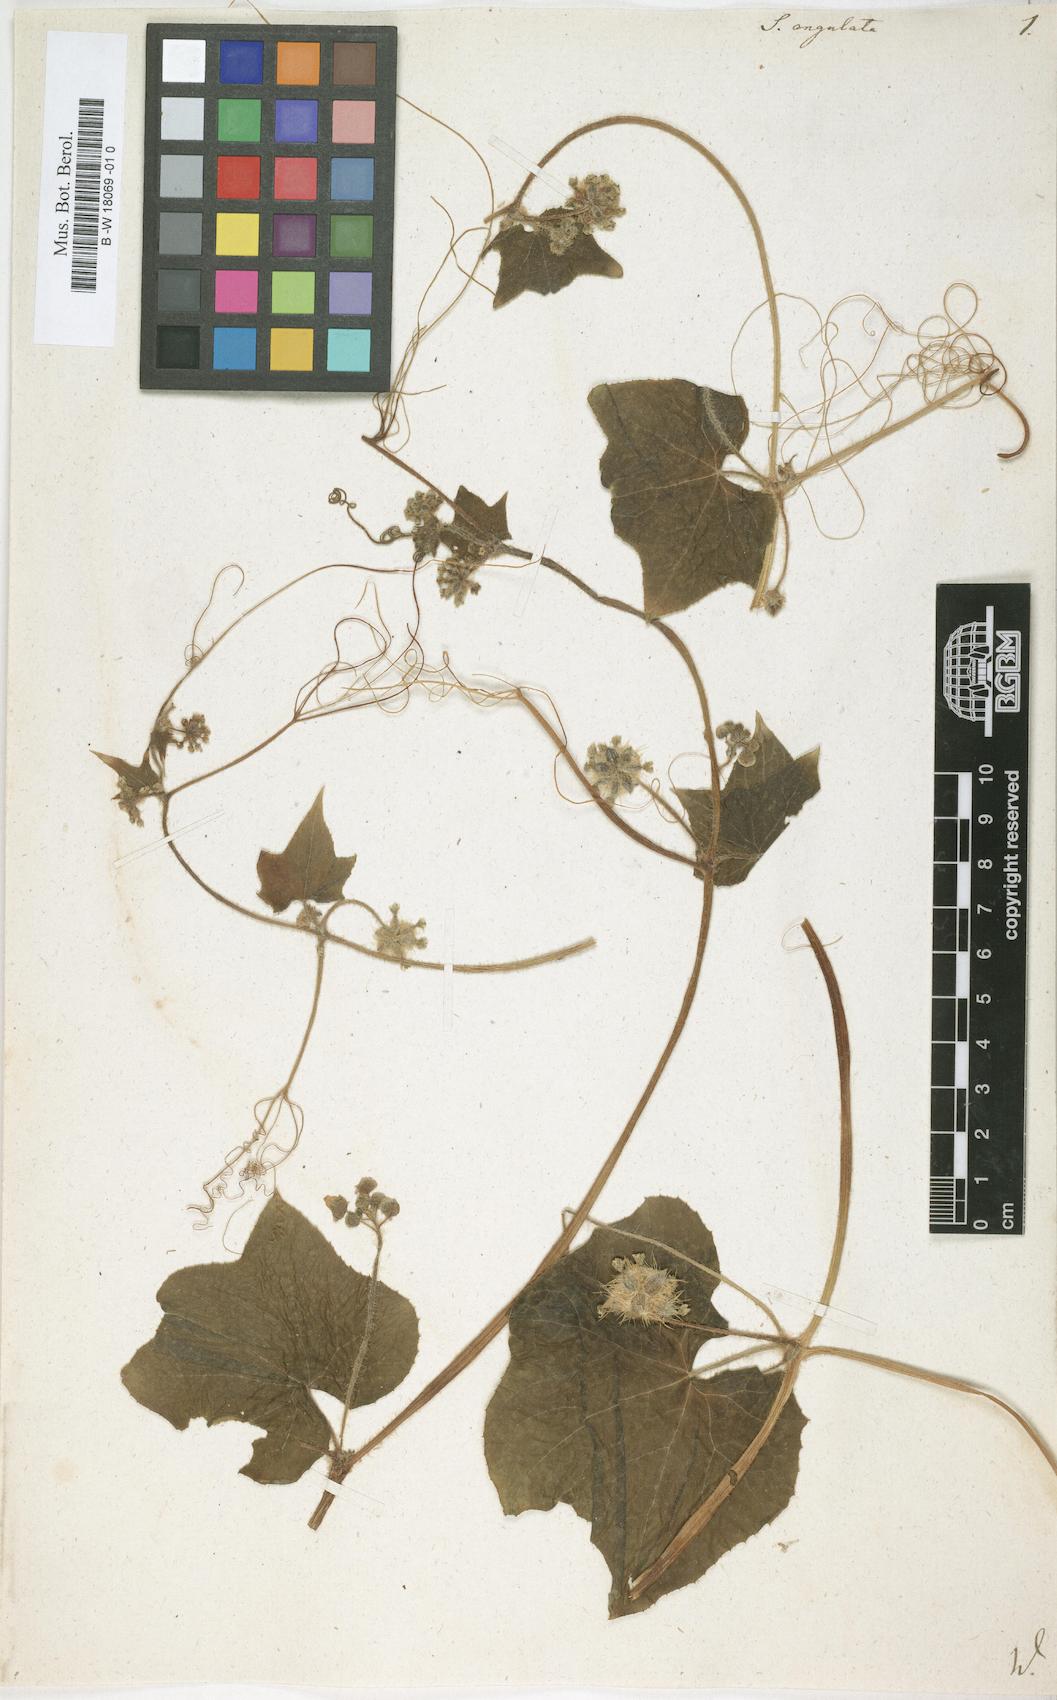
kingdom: Plantae
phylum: Tracheophyta
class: Magnoliopsida
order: Cucurbitales
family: Cucurbitaceae
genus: Sicyos
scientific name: Sicyos angulatus
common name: Angled burr cucumber
